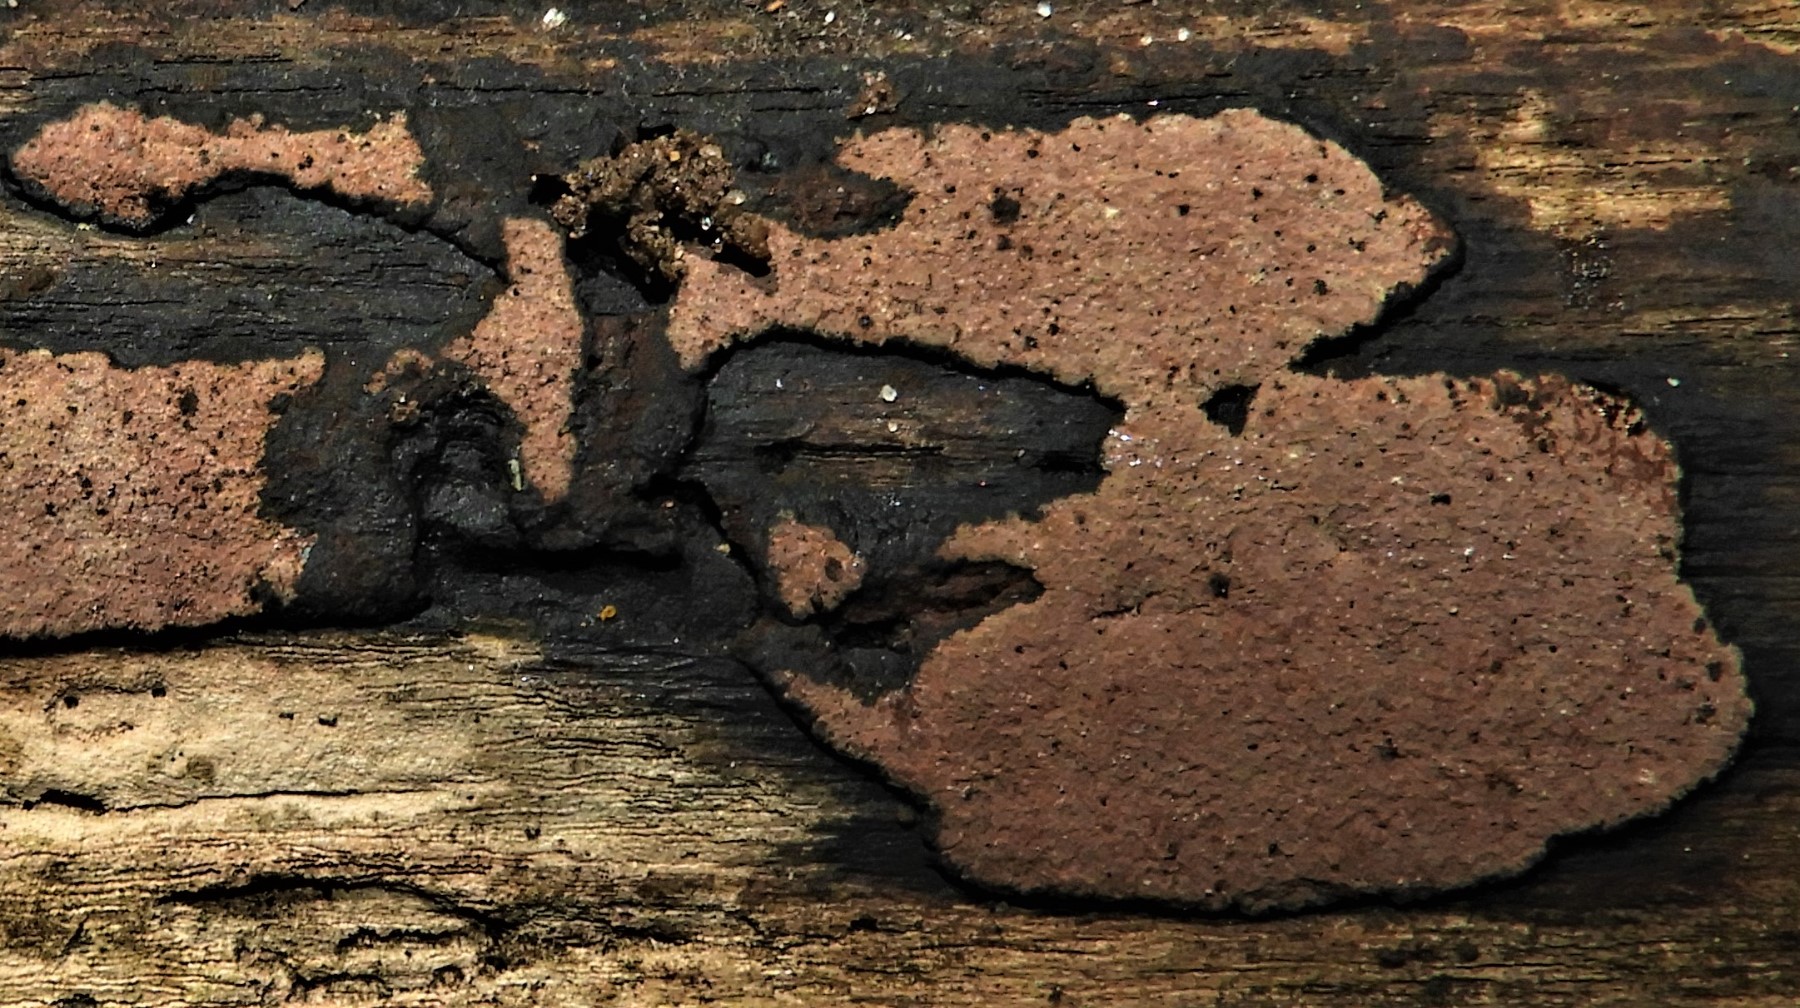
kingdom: Fungi
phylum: Ascomycota
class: Sordariomycetes
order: Xylariales
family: Hypoxylaceae
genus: Hypoxylon
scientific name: Hypoxylon petriniae
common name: nedsænket kulbær
